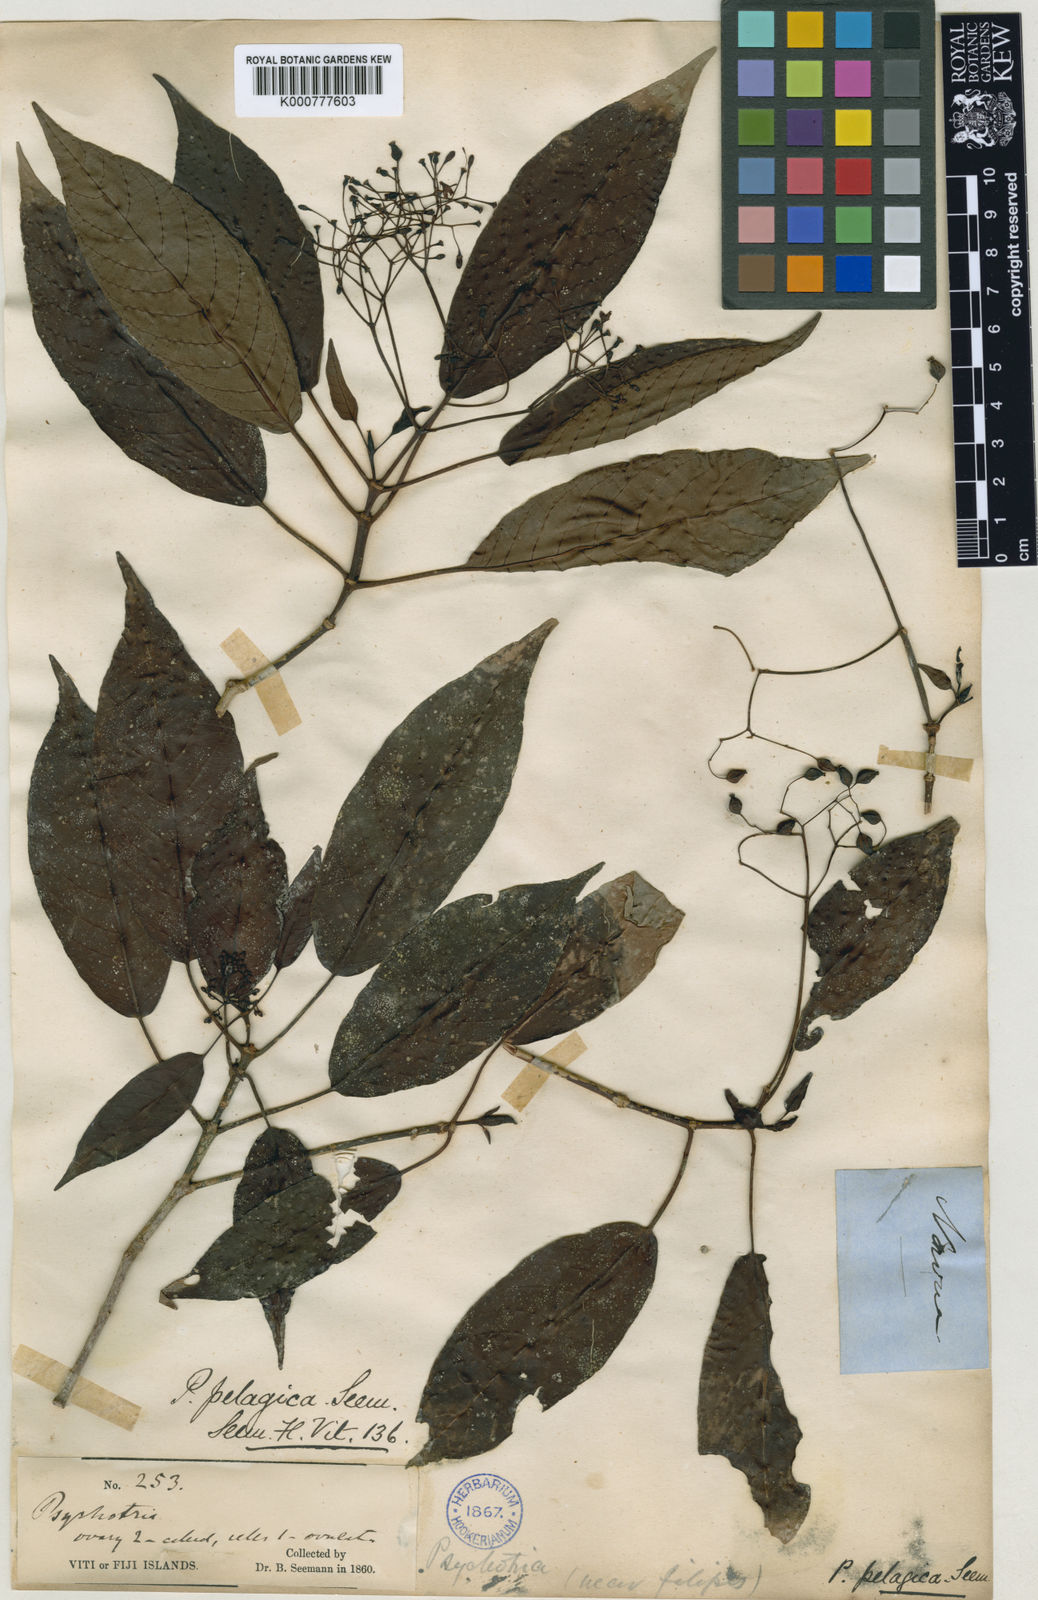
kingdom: Plantae
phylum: Tracheophyta
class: Magnoliopsida
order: Gentianales
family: Rubiaceae
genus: Psychotria
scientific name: Psychotria filipes
